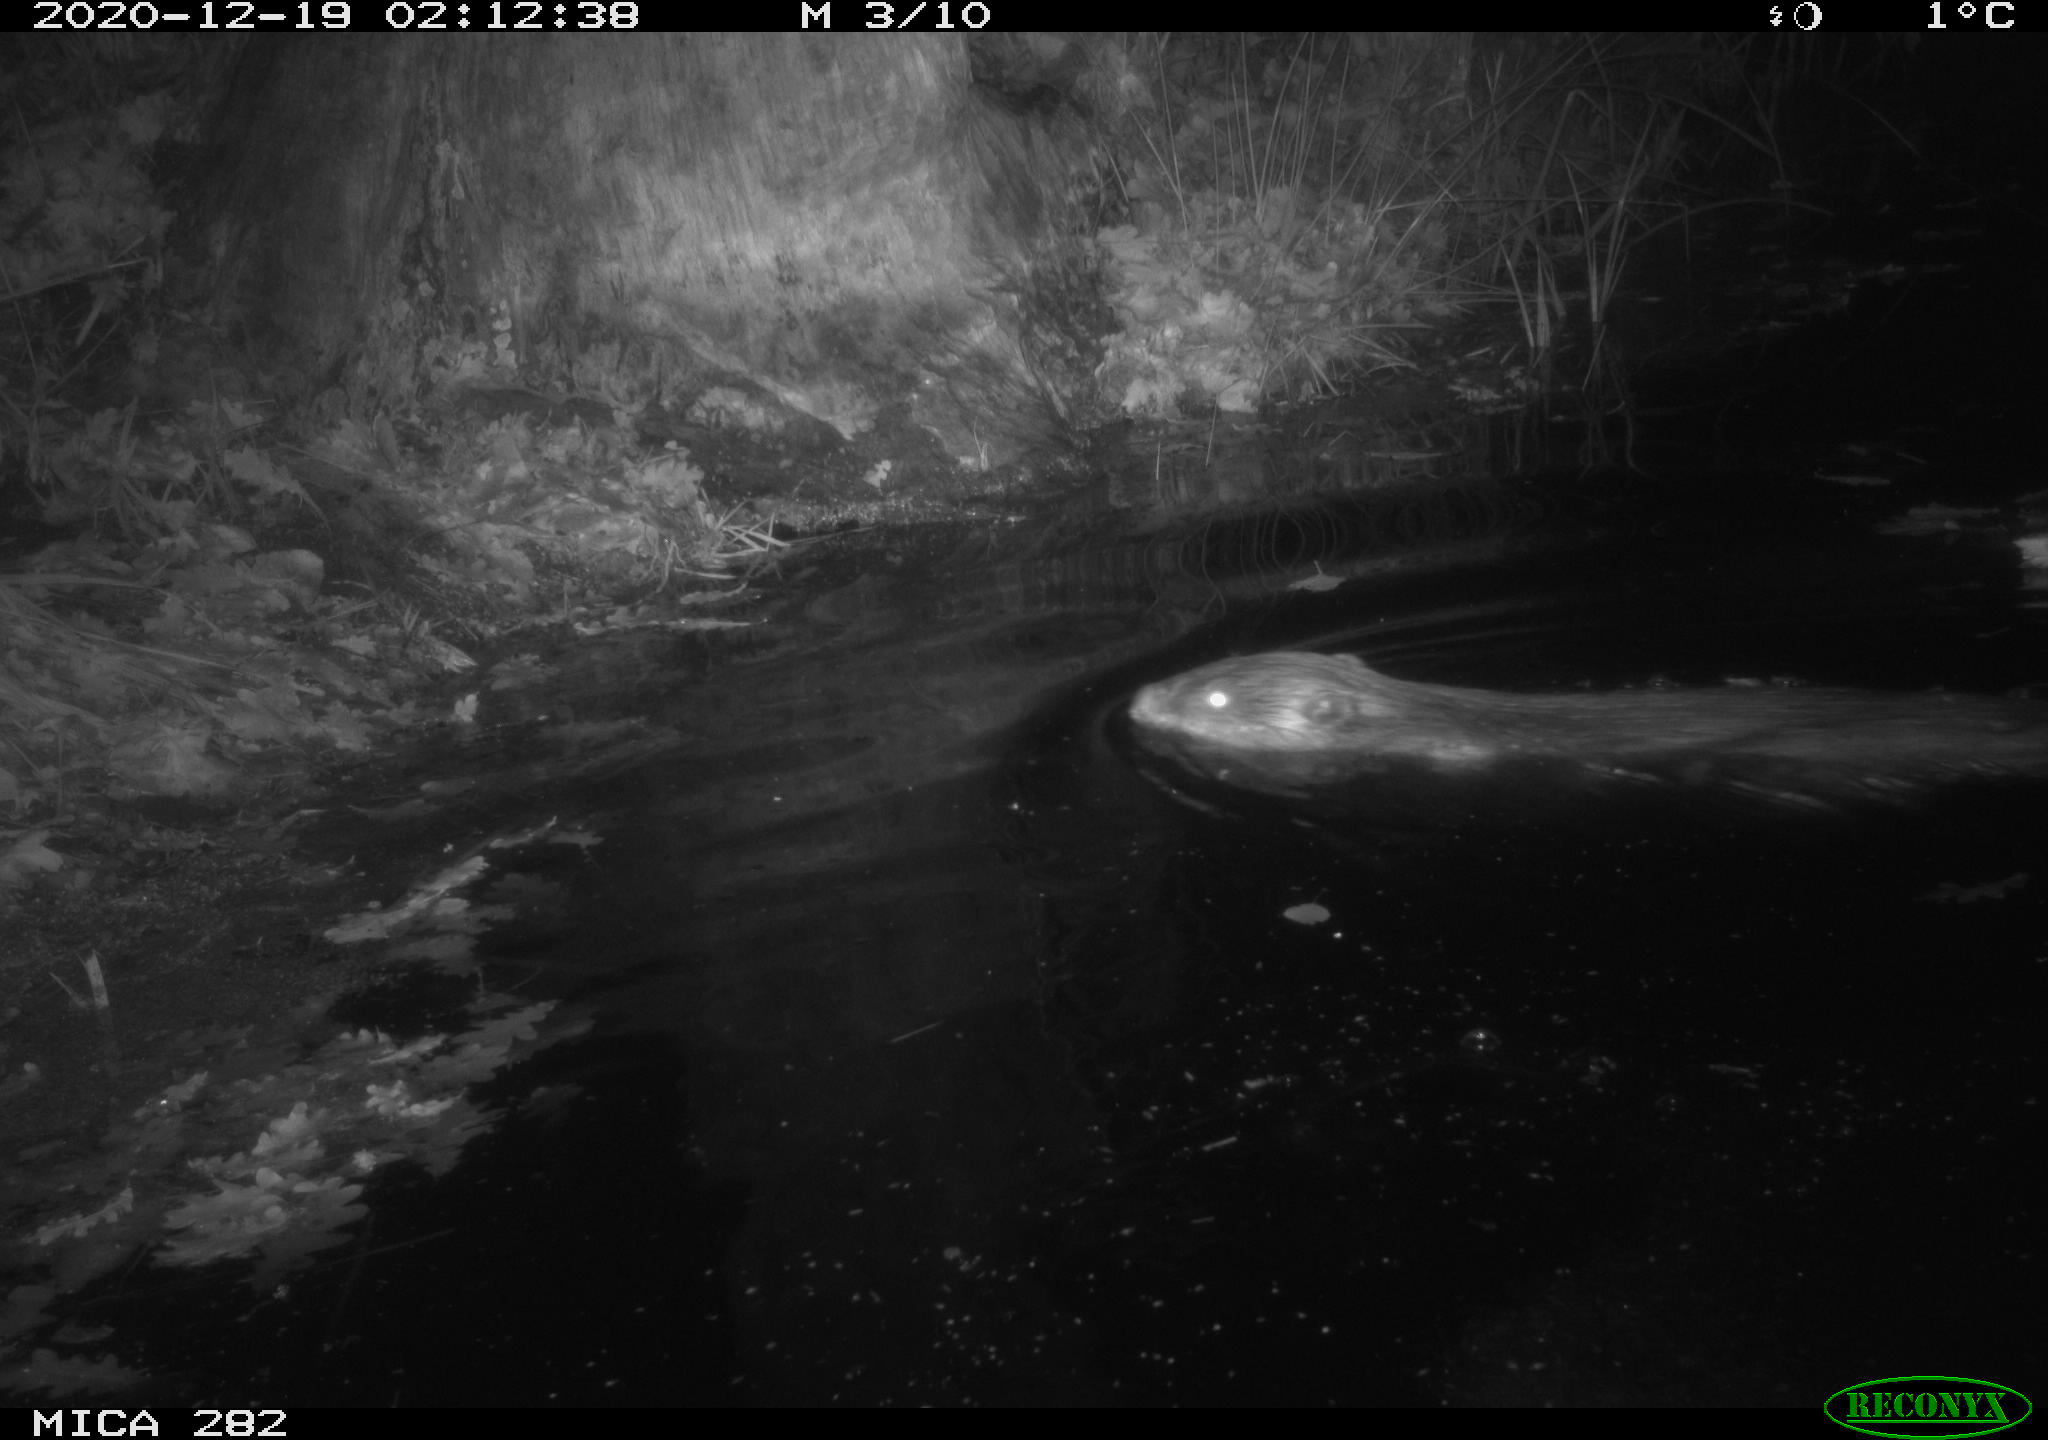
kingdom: Animalia
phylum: Chordata
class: Mammalia
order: Rodentia
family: Castoridae
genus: Castor
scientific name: Castor fiber
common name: Eurasian beaver
